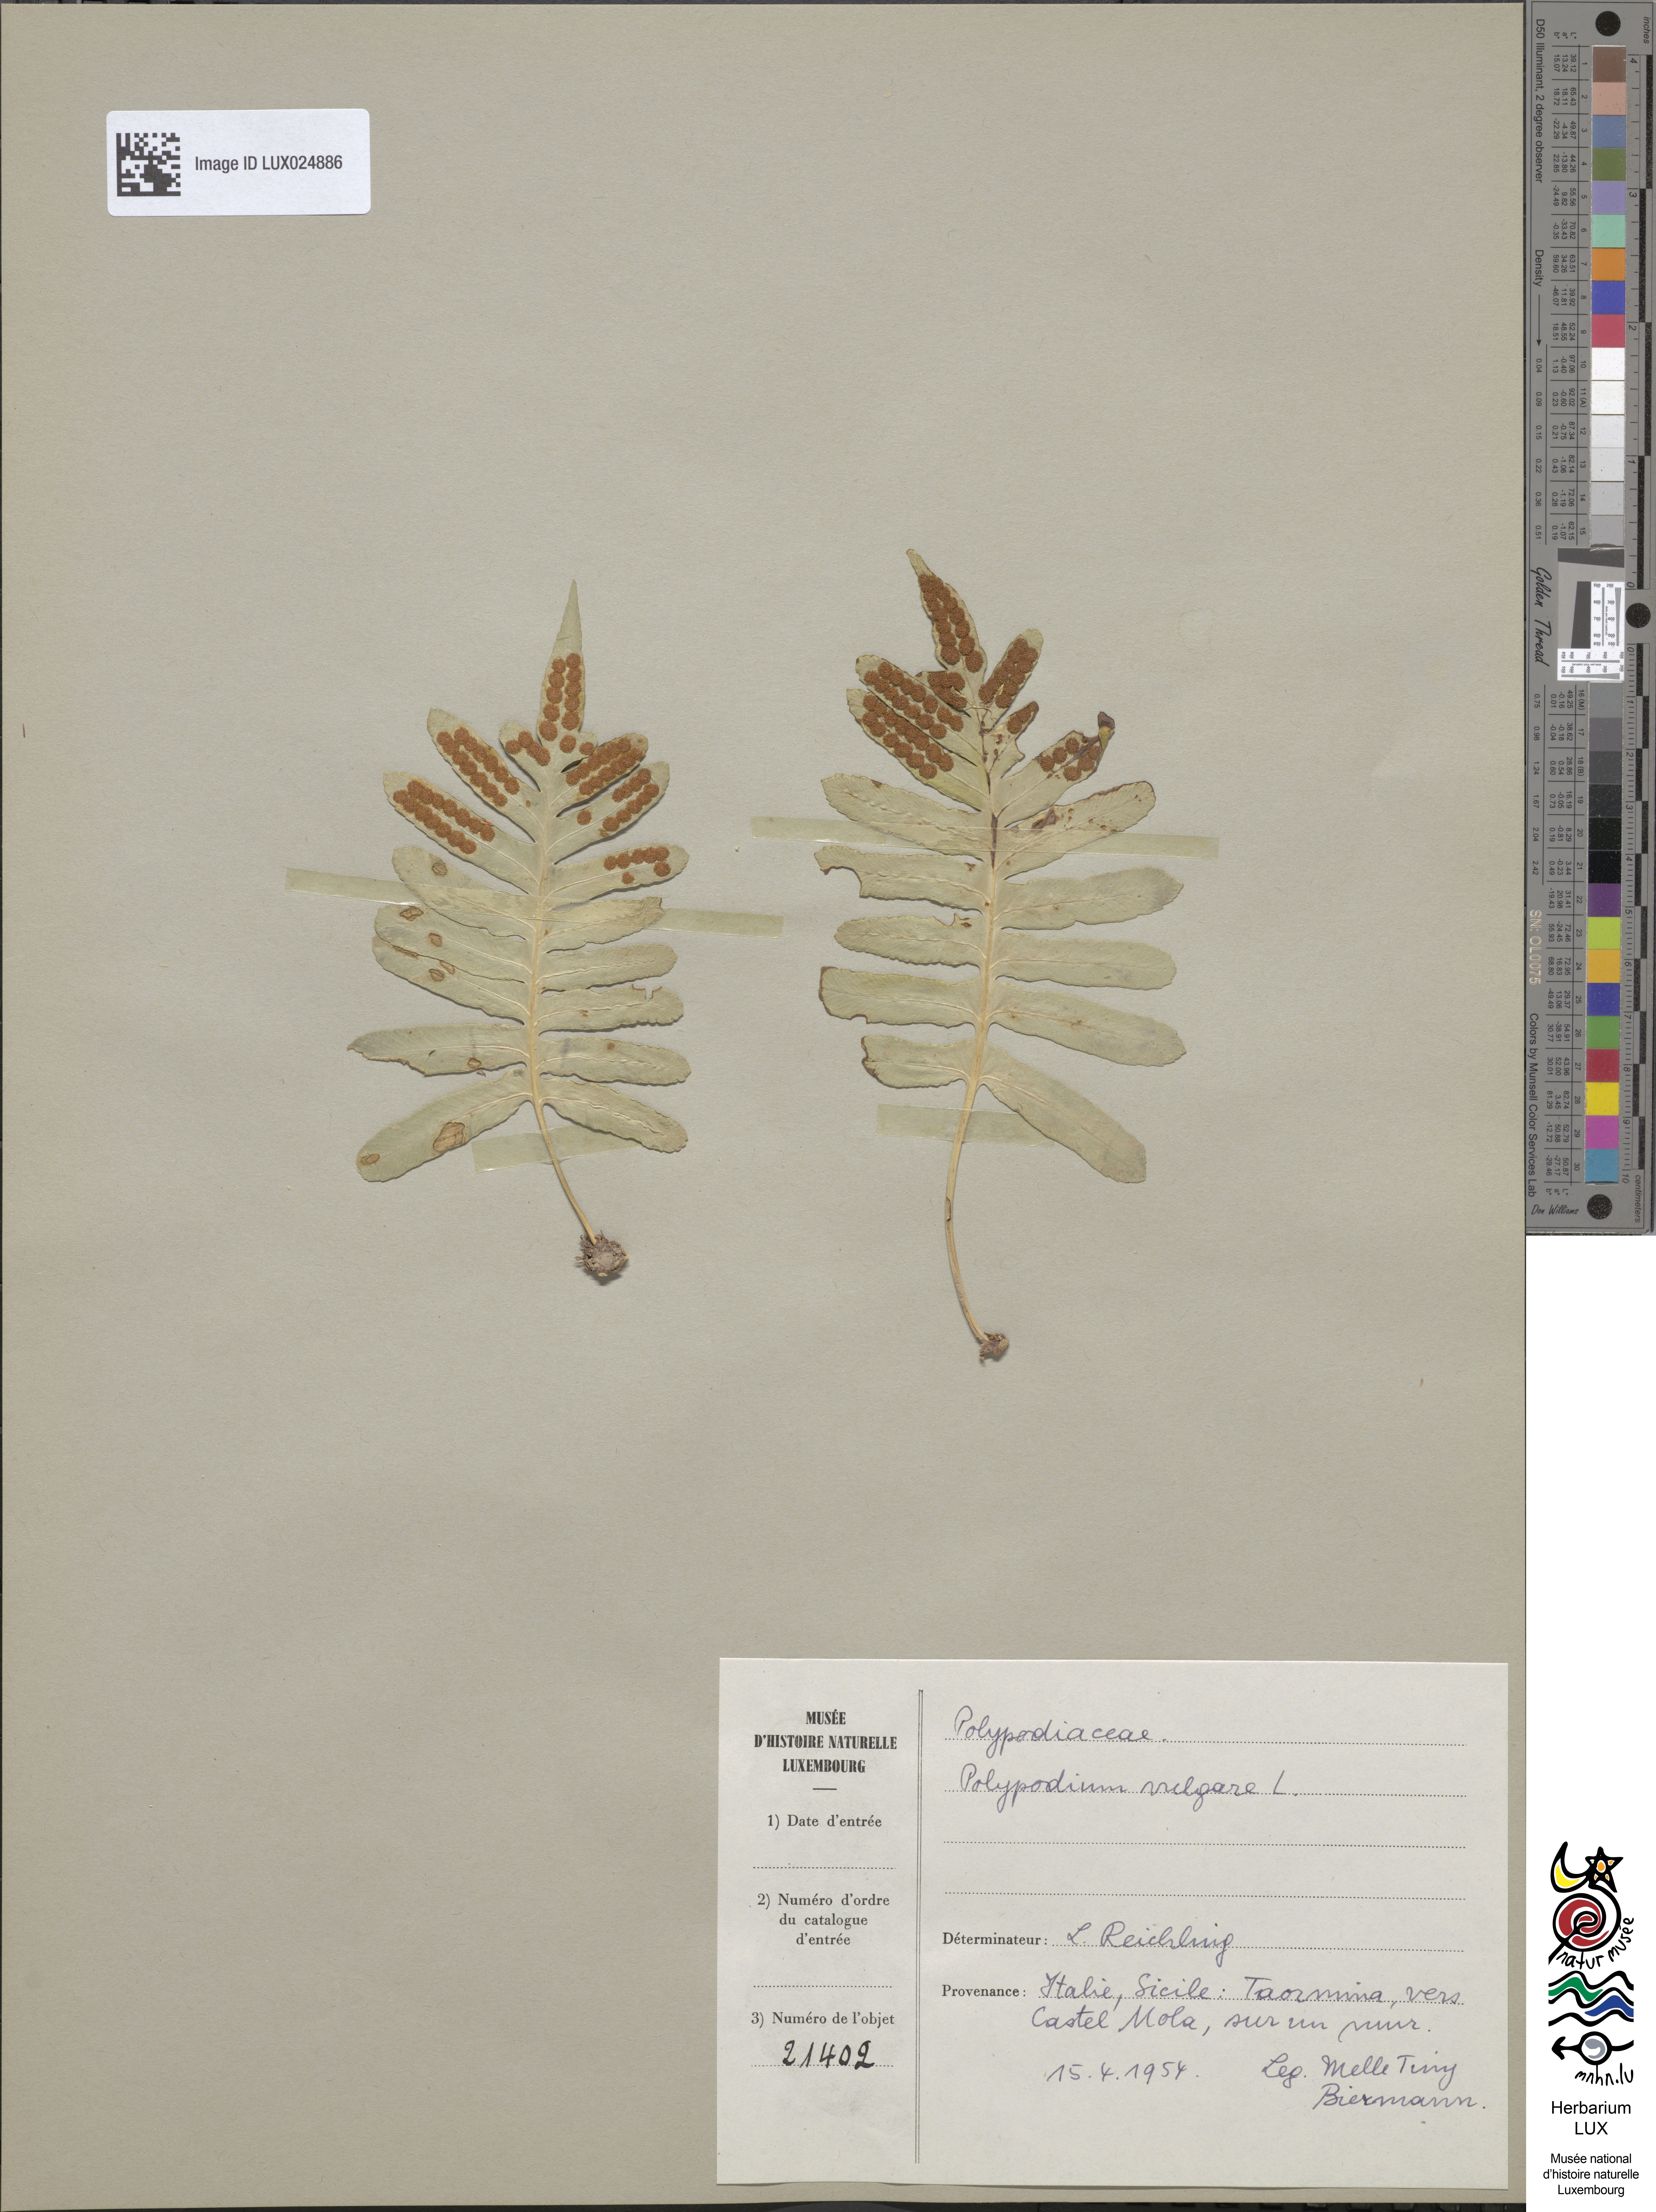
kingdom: Plantae
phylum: Tracheophyta
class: Polypodiopsida
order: Polypodiales
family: Polypodiaceae
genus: Polypodium
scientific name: Polypodium vulgare
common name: Common polypody
